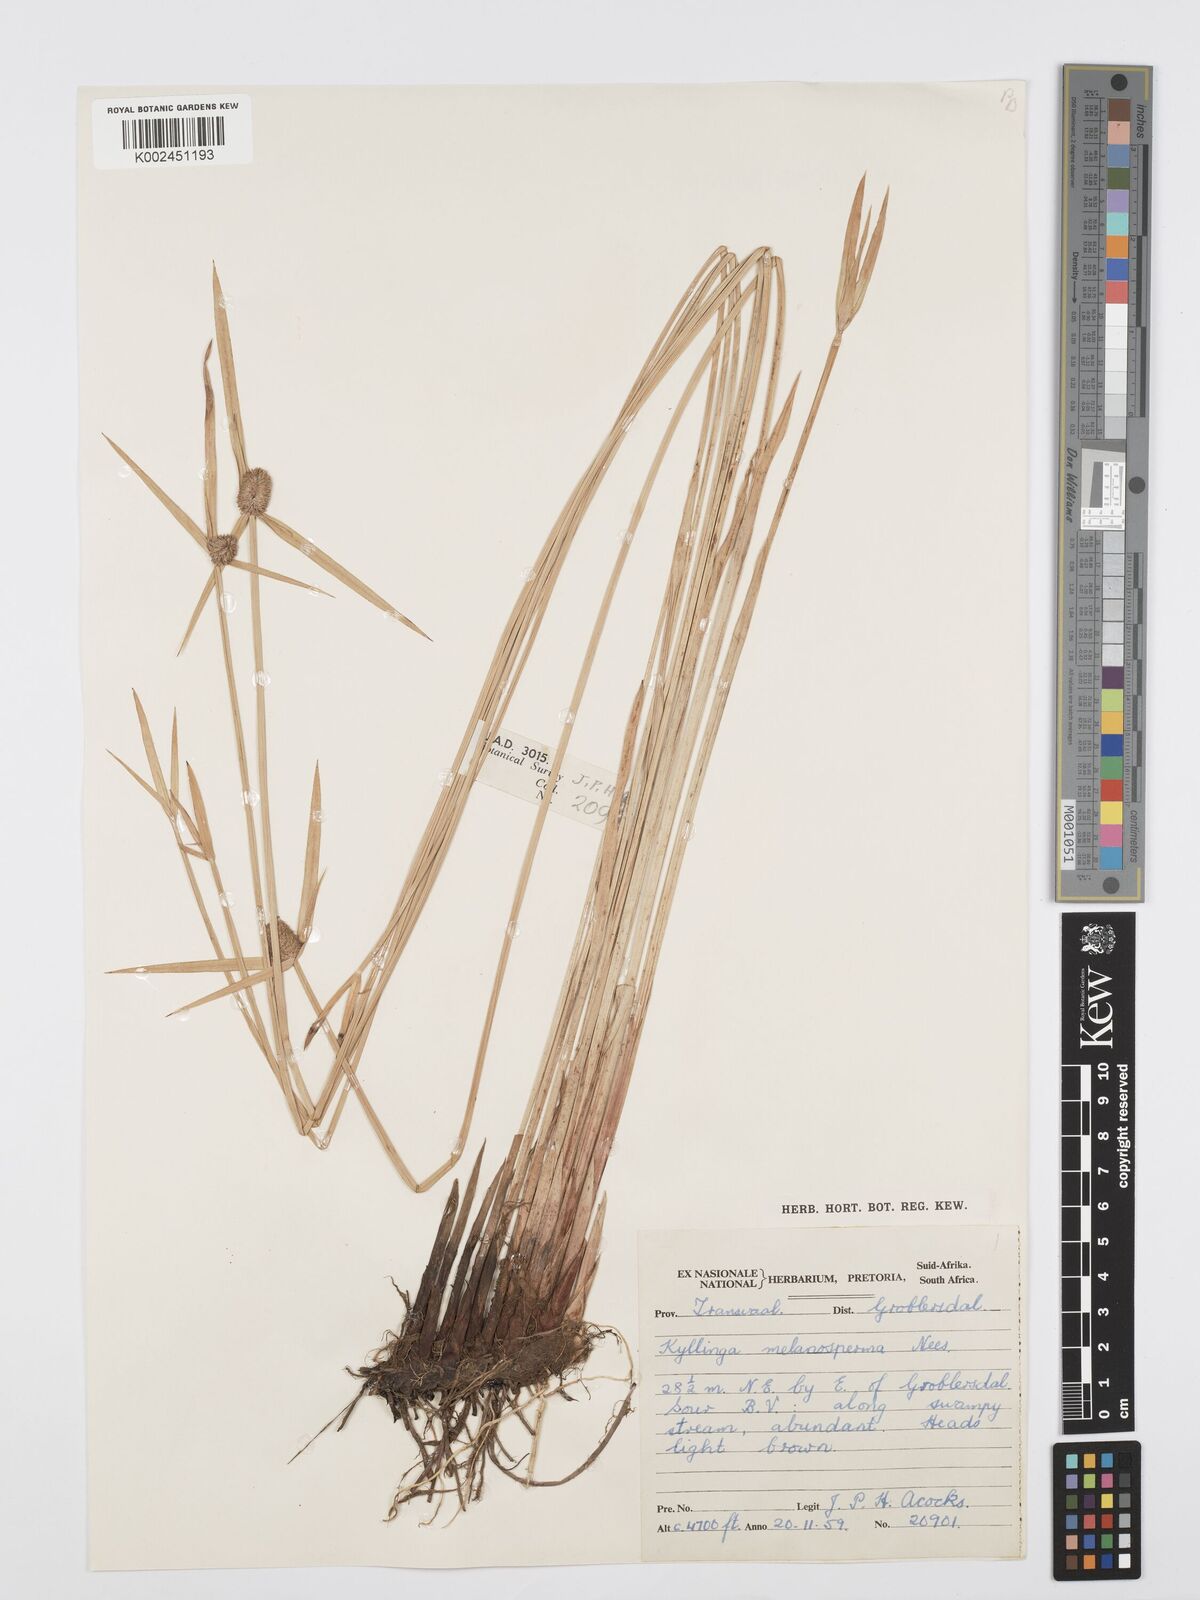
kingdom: Plantae
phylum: Tracheophyta
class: Liliopsida
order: Poales
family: Cyperaceae
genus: Cyperus
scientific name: Cyperus melanospermus
